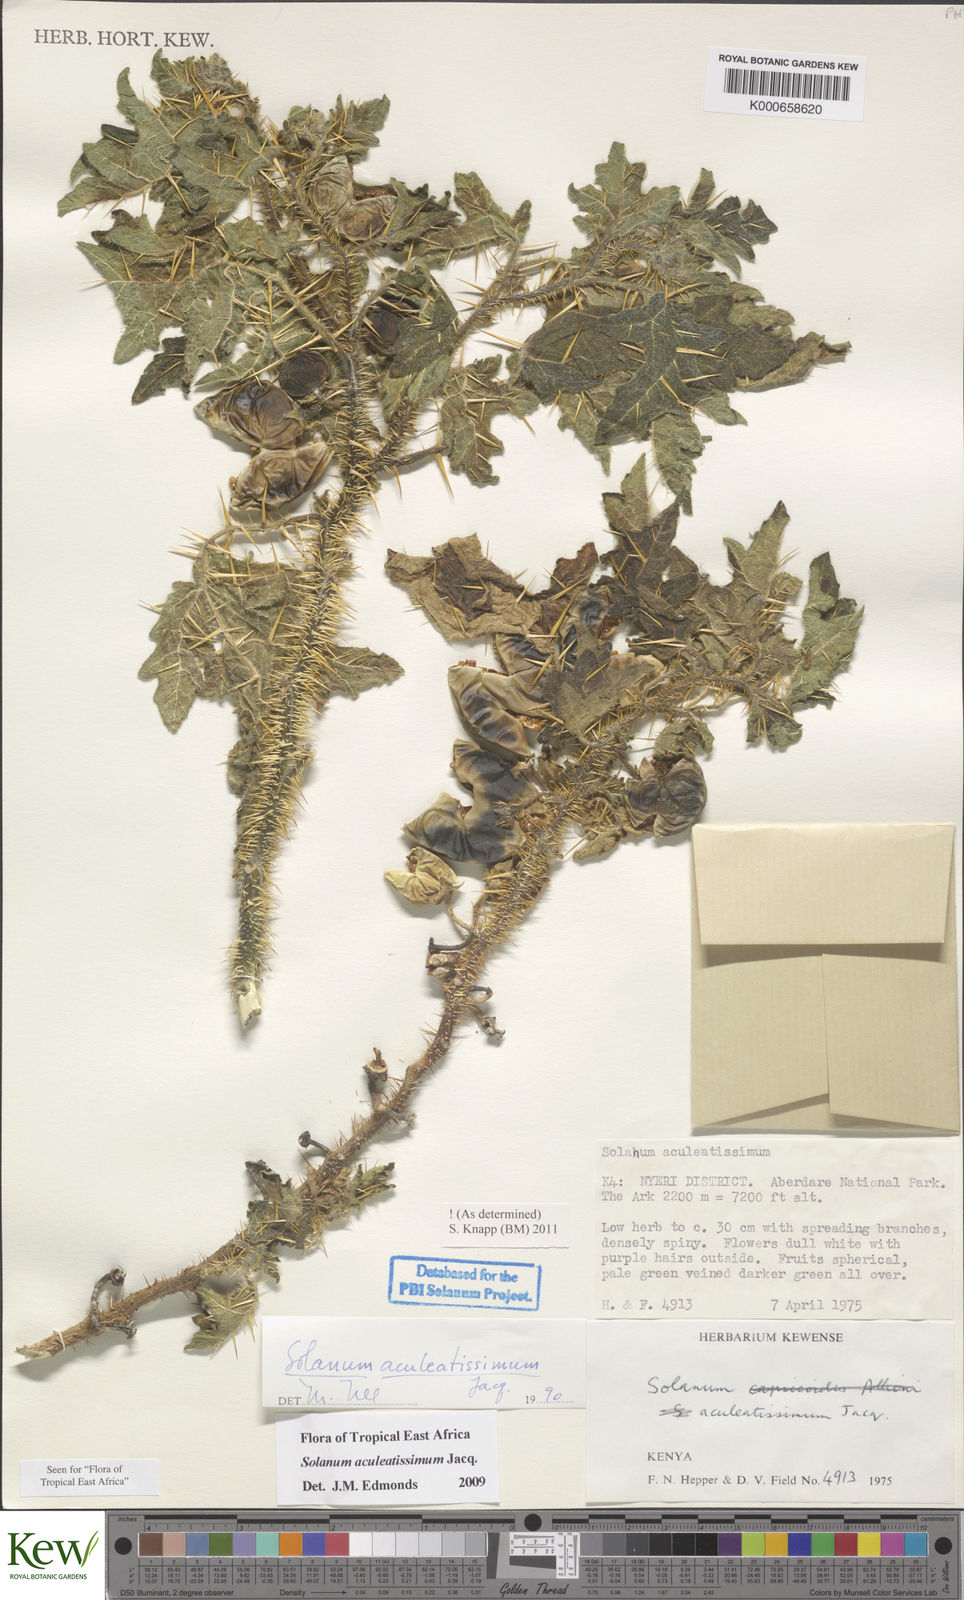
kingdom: Plantae
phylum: Tracheophyta
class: Magnoliopsida
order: Solanales
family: Solanaceae
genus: Solanum
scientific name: Solanum aculeatissimum
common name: Dutch eggplant
